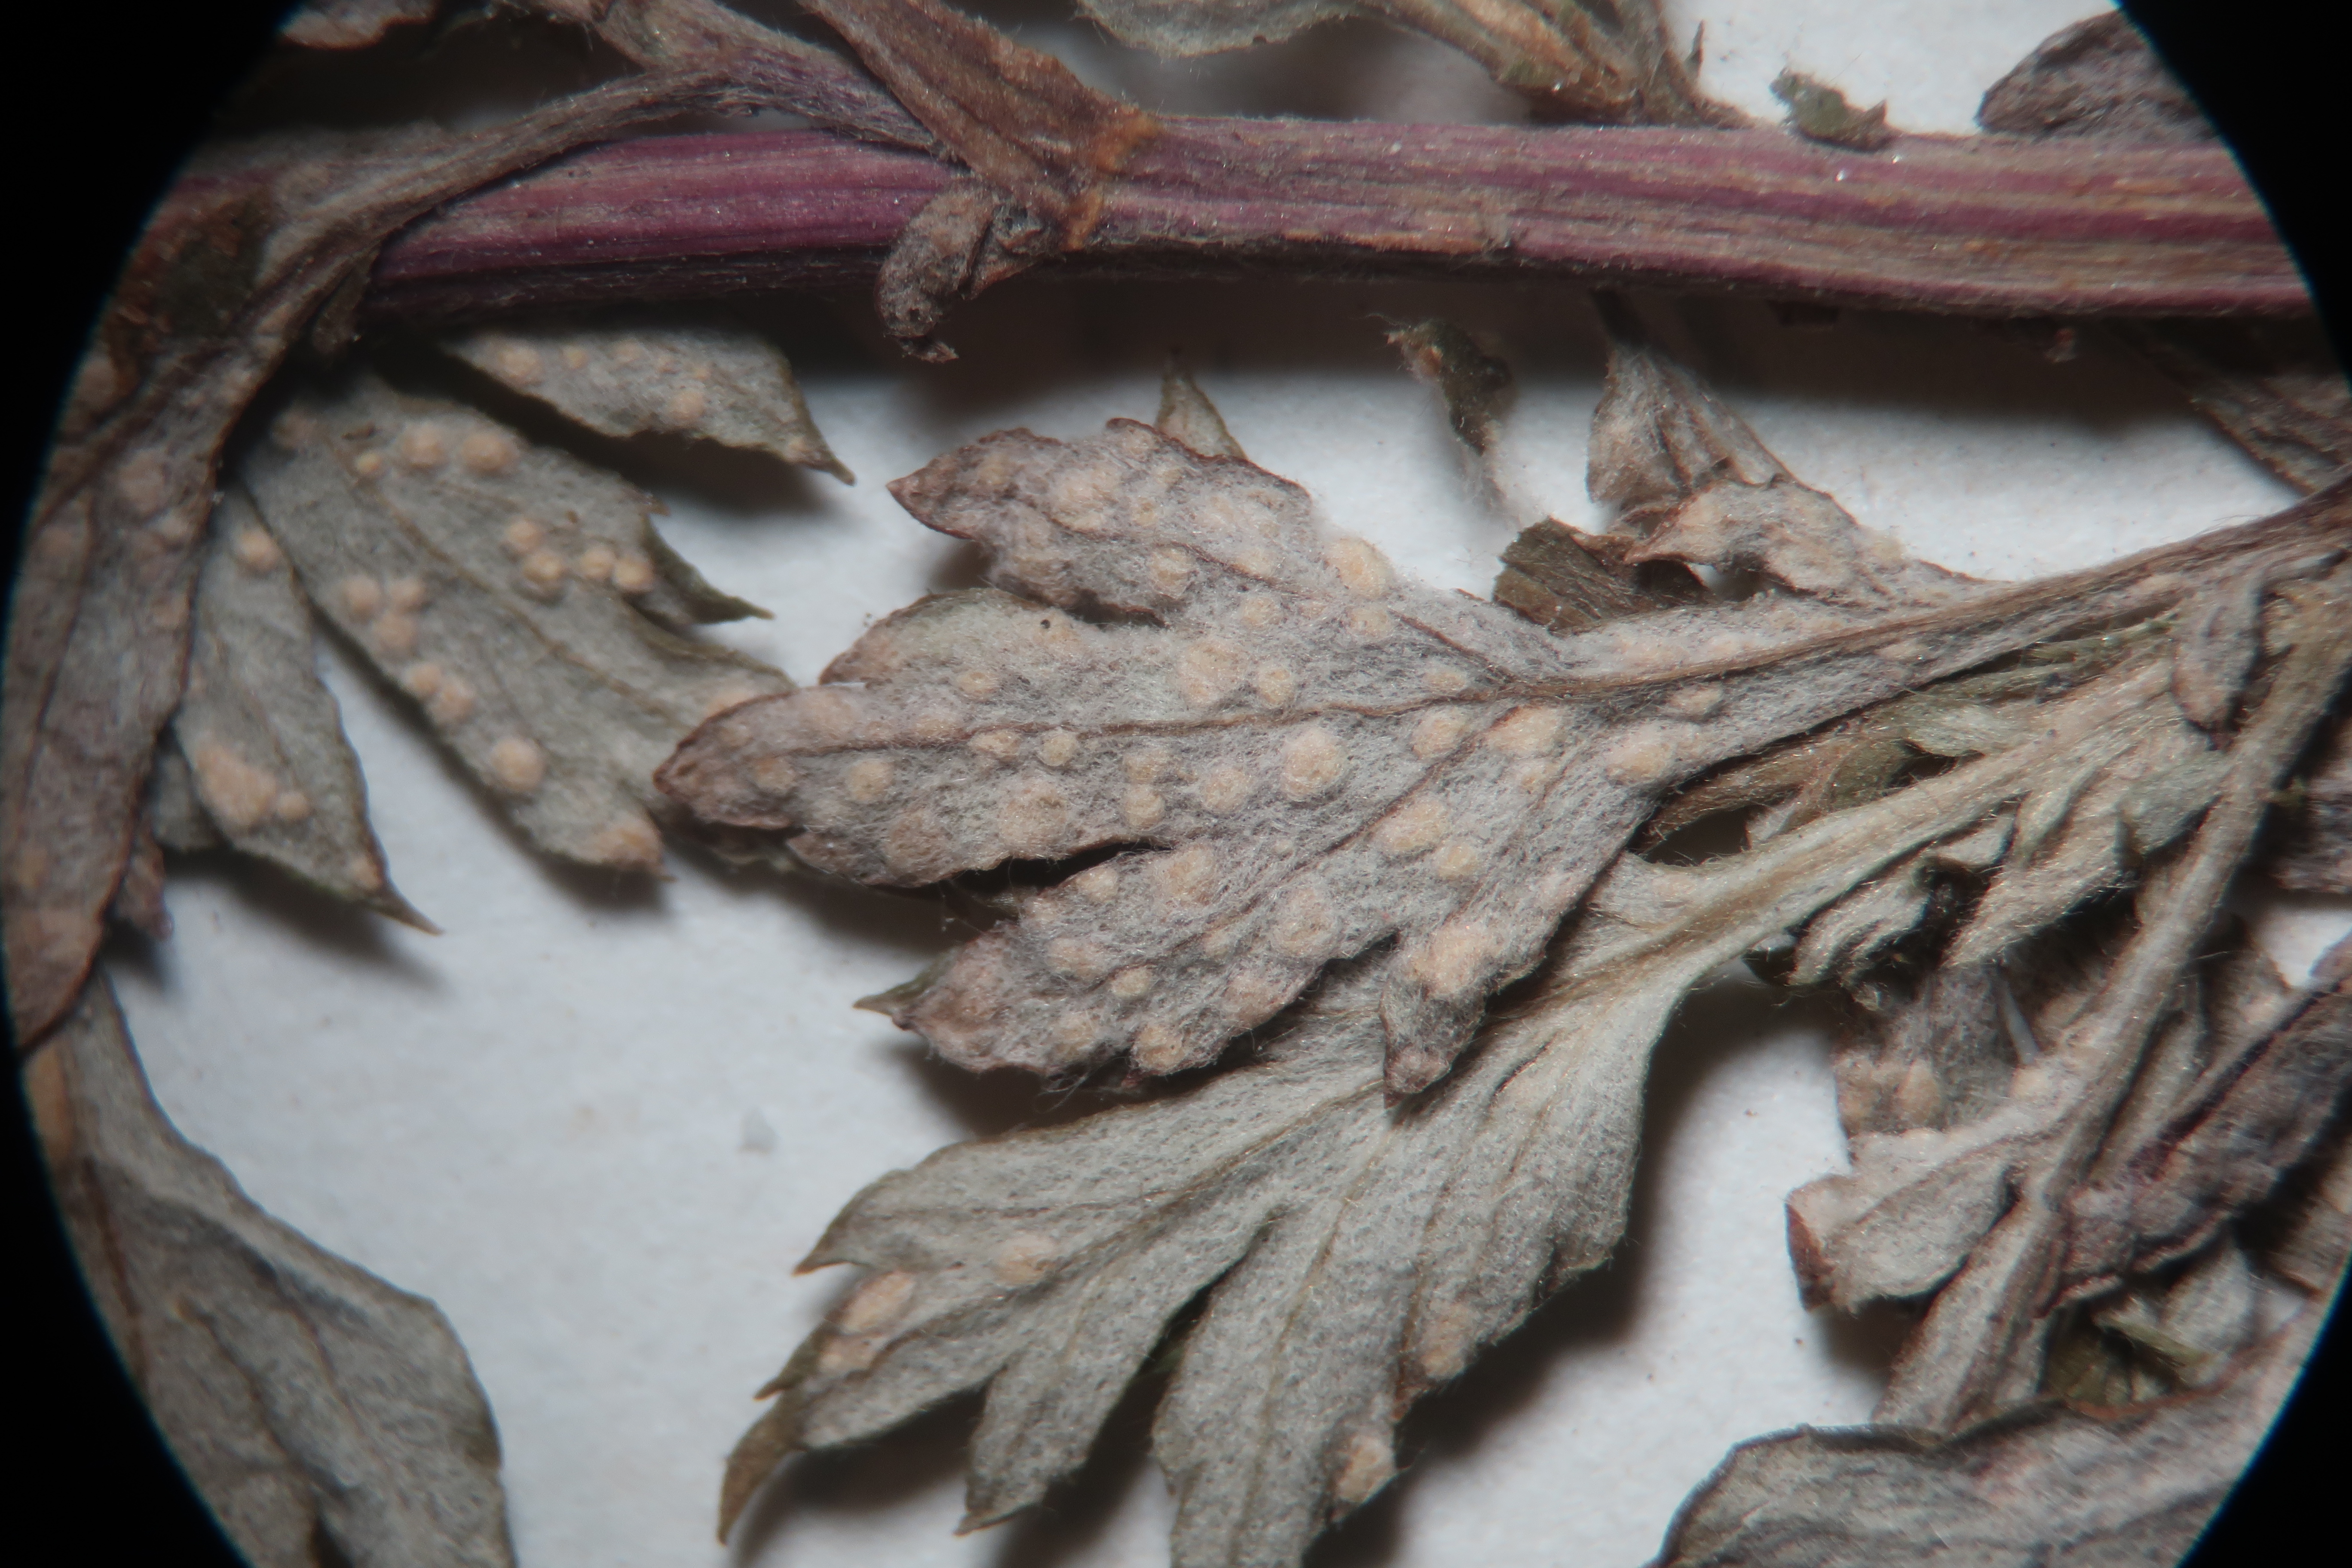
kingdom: Chromista
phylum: Oomycota
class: Peronosporea
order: Albuginales
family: Albuginaceae
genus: Pustula
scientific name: Pustula tragopogonis
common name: Sunflower white rust
